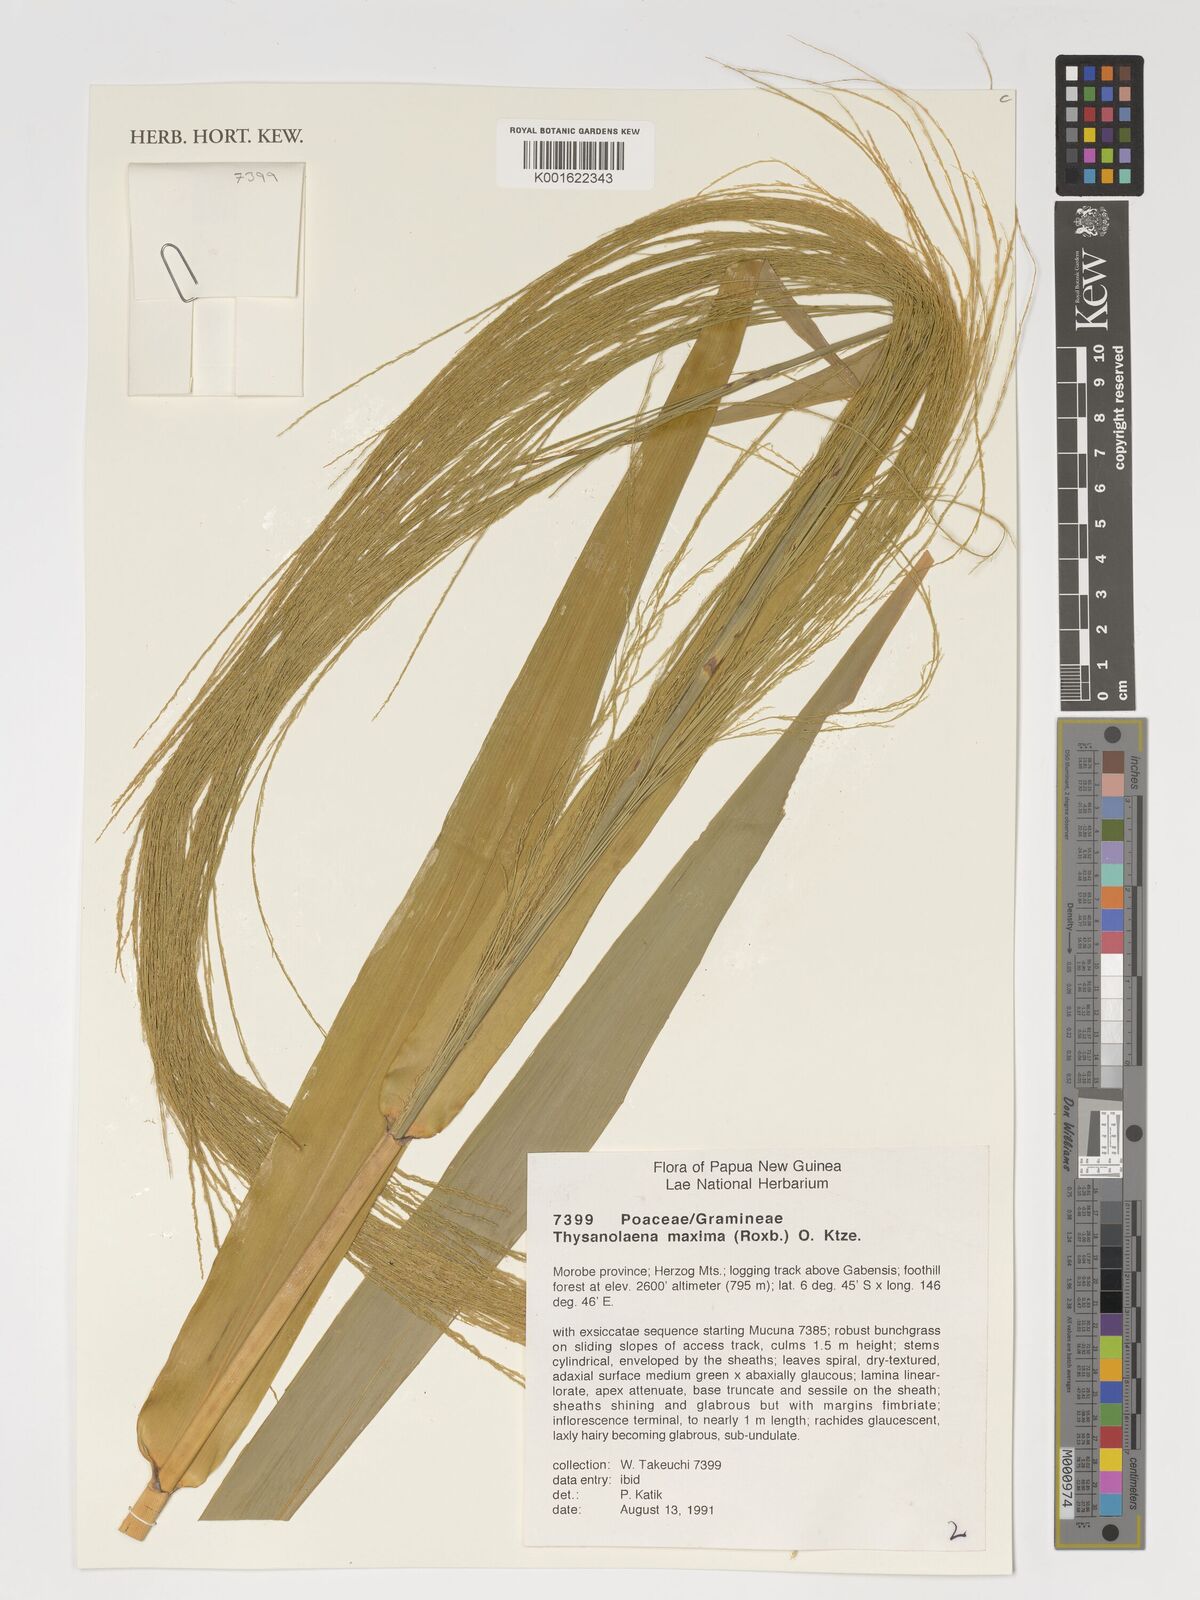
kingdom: Plantae
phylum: Tracheophyta
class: Liliopsida
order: Poales
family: Poaceae
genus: Thysanolaena
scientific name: Thysanolaena latifolia
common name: Tiger grass
